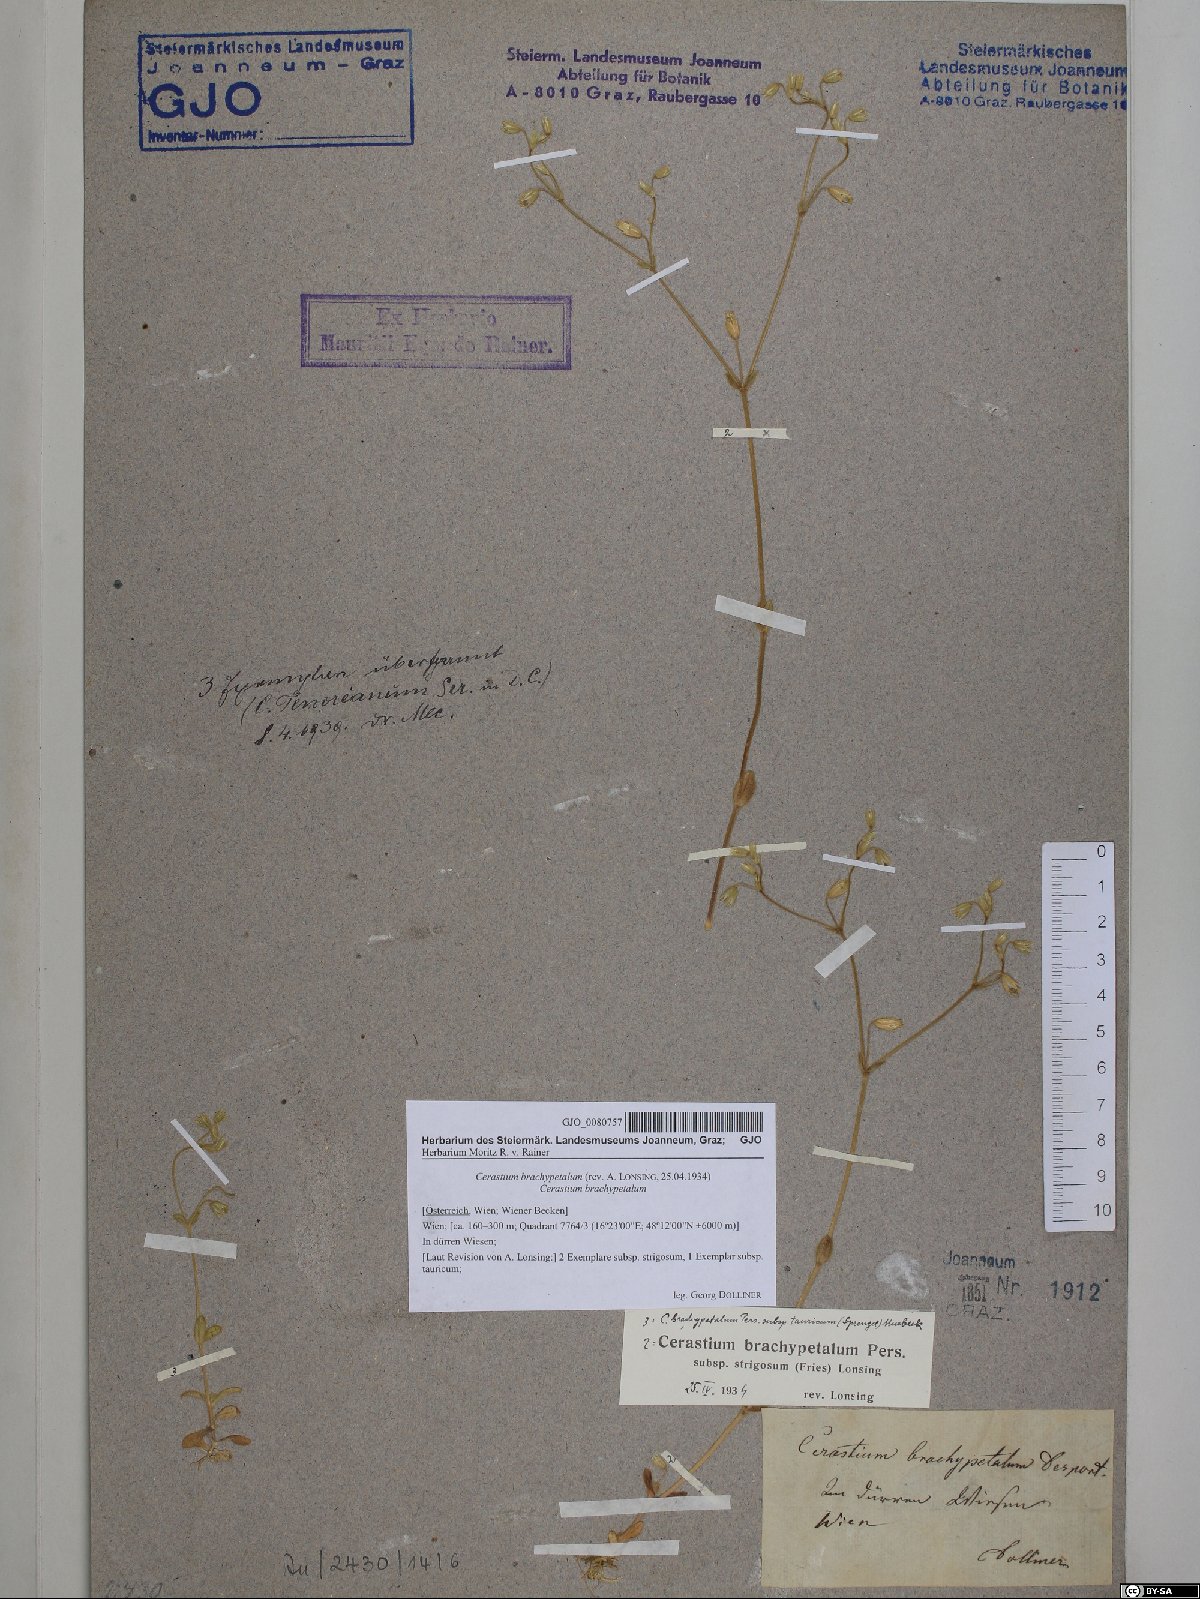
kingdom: Plantae
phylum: Tracheophyta
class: Magnoliopsida
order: Caryophyllales
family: Caryophyllaceae
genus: Cerastium
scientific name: Cerastium brachypetalum
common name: Grey mouse-ear
